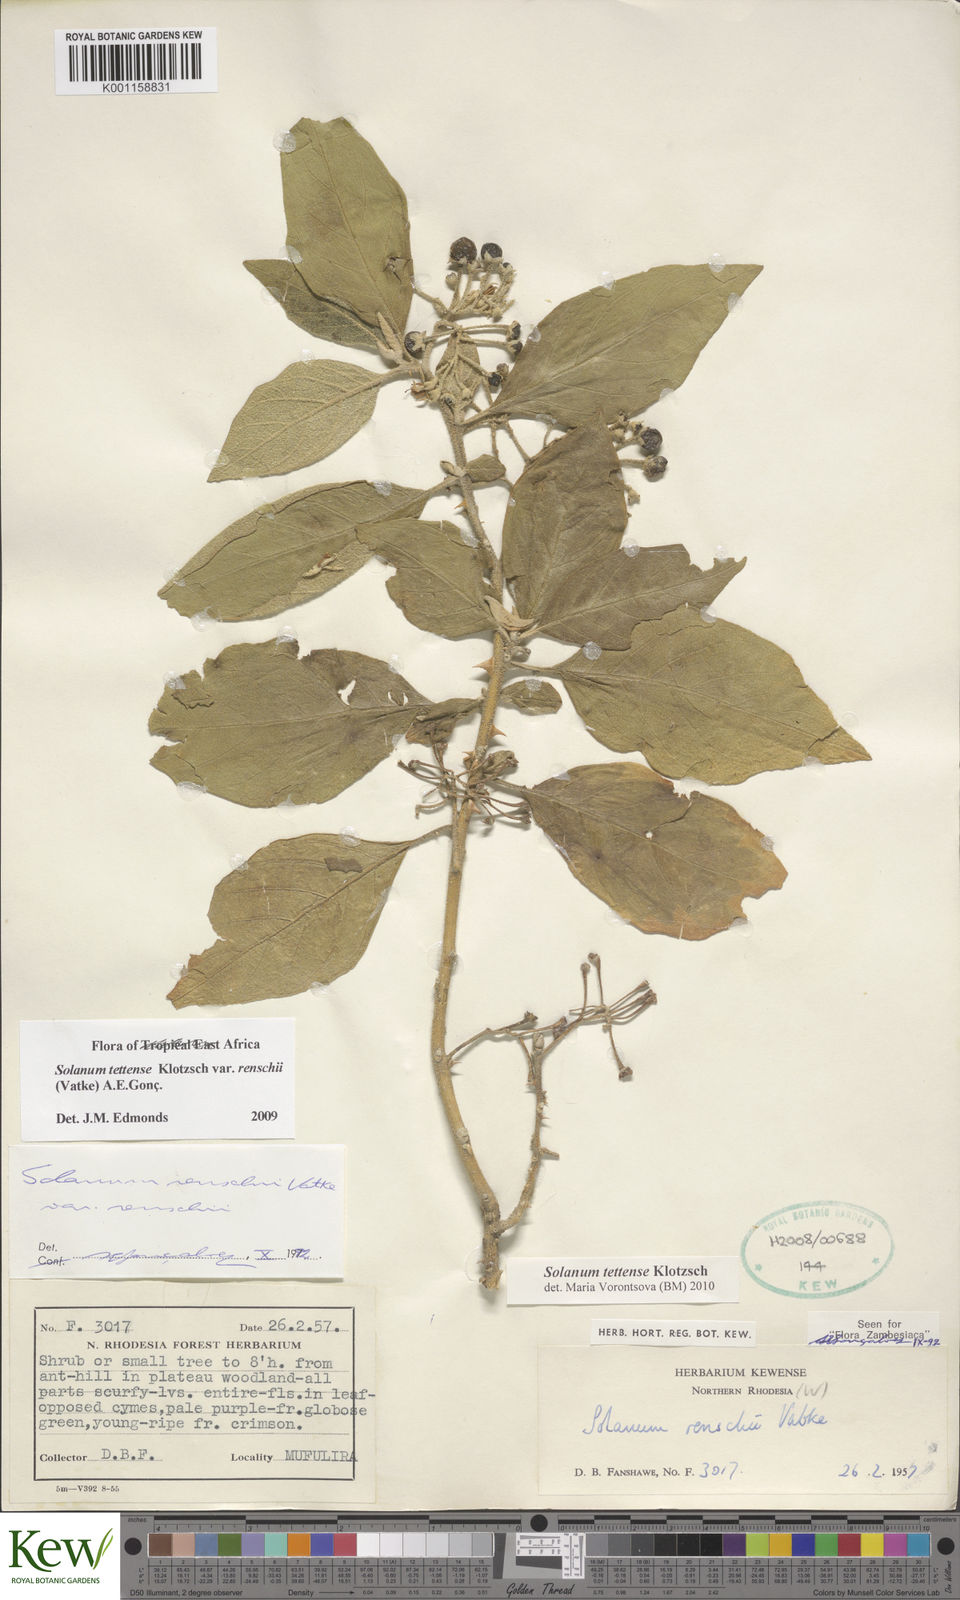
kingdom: Plantae
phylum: Tracheophyta
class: Magnoliopsida
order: Solanales
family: Solanaceae
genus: Solanum
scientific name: Solanum tettense
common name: Mozambique bitter apple
